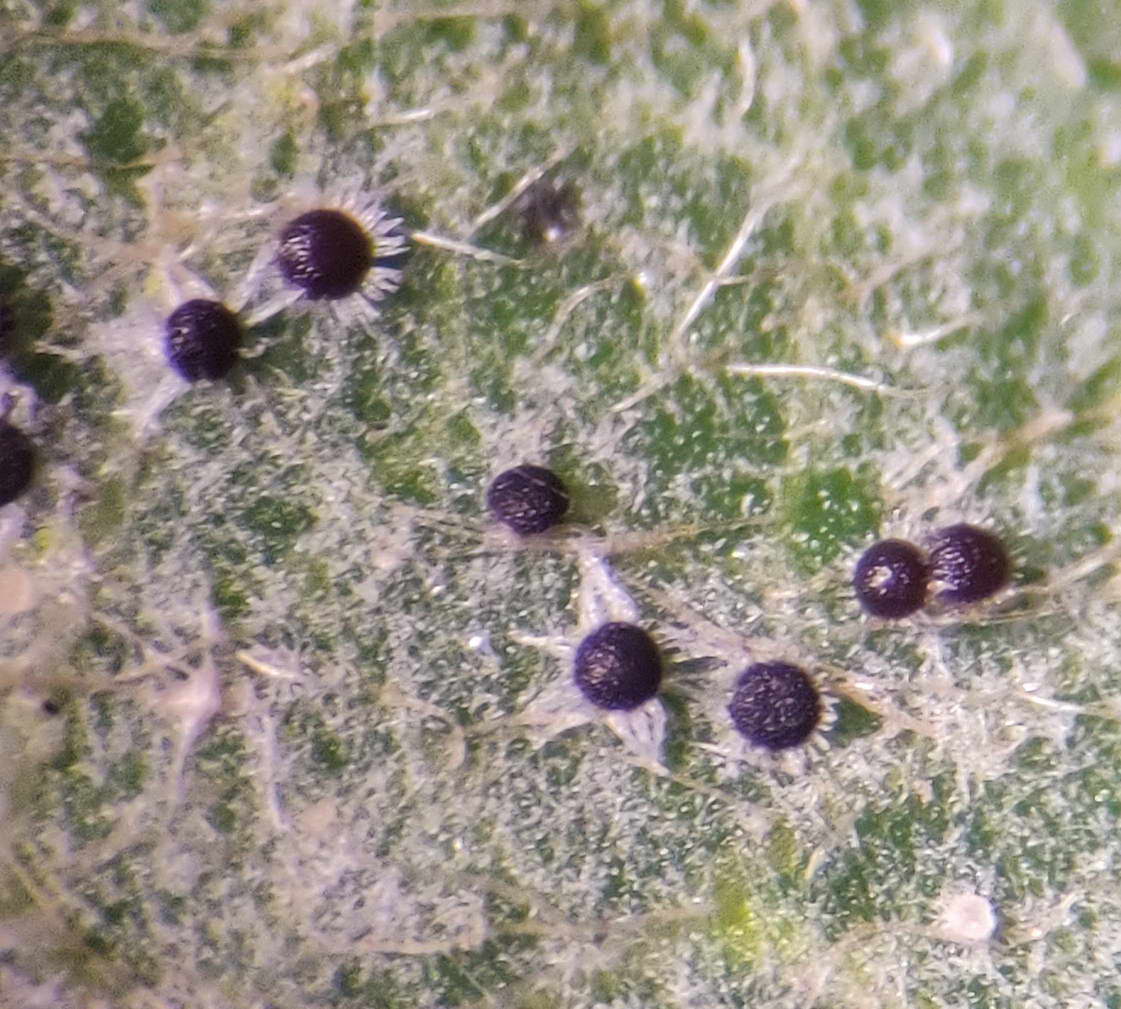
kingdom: Fungi
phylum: Ascomycota
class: Leotiomycetes
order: Helotiales
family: Erysiphaceae
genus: Erysiphe
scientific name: Erysiphe adunca
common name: pile-meldug
